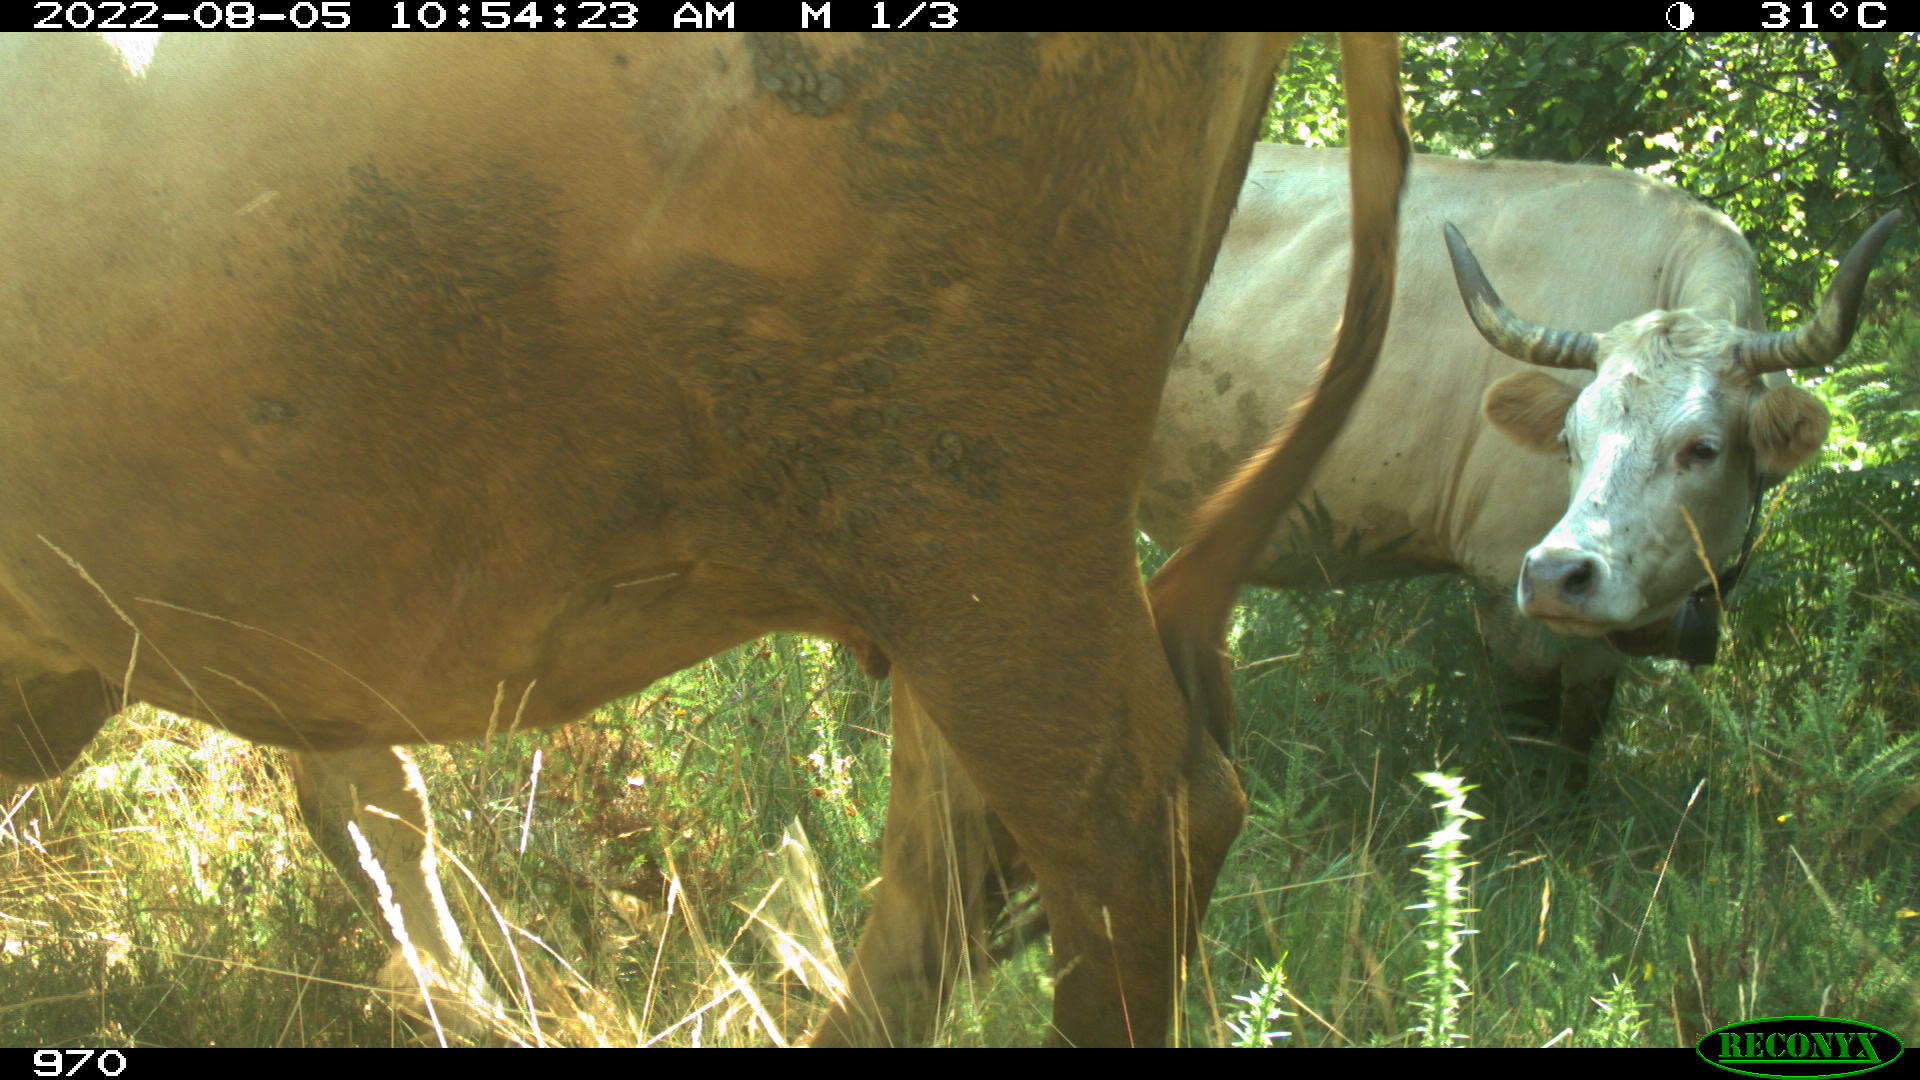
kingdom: Animalia
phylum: Chordata
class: Mammalia
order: Carnivora
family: Canidae
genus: Canis
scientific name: Canis lupus
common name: Gray wolf
